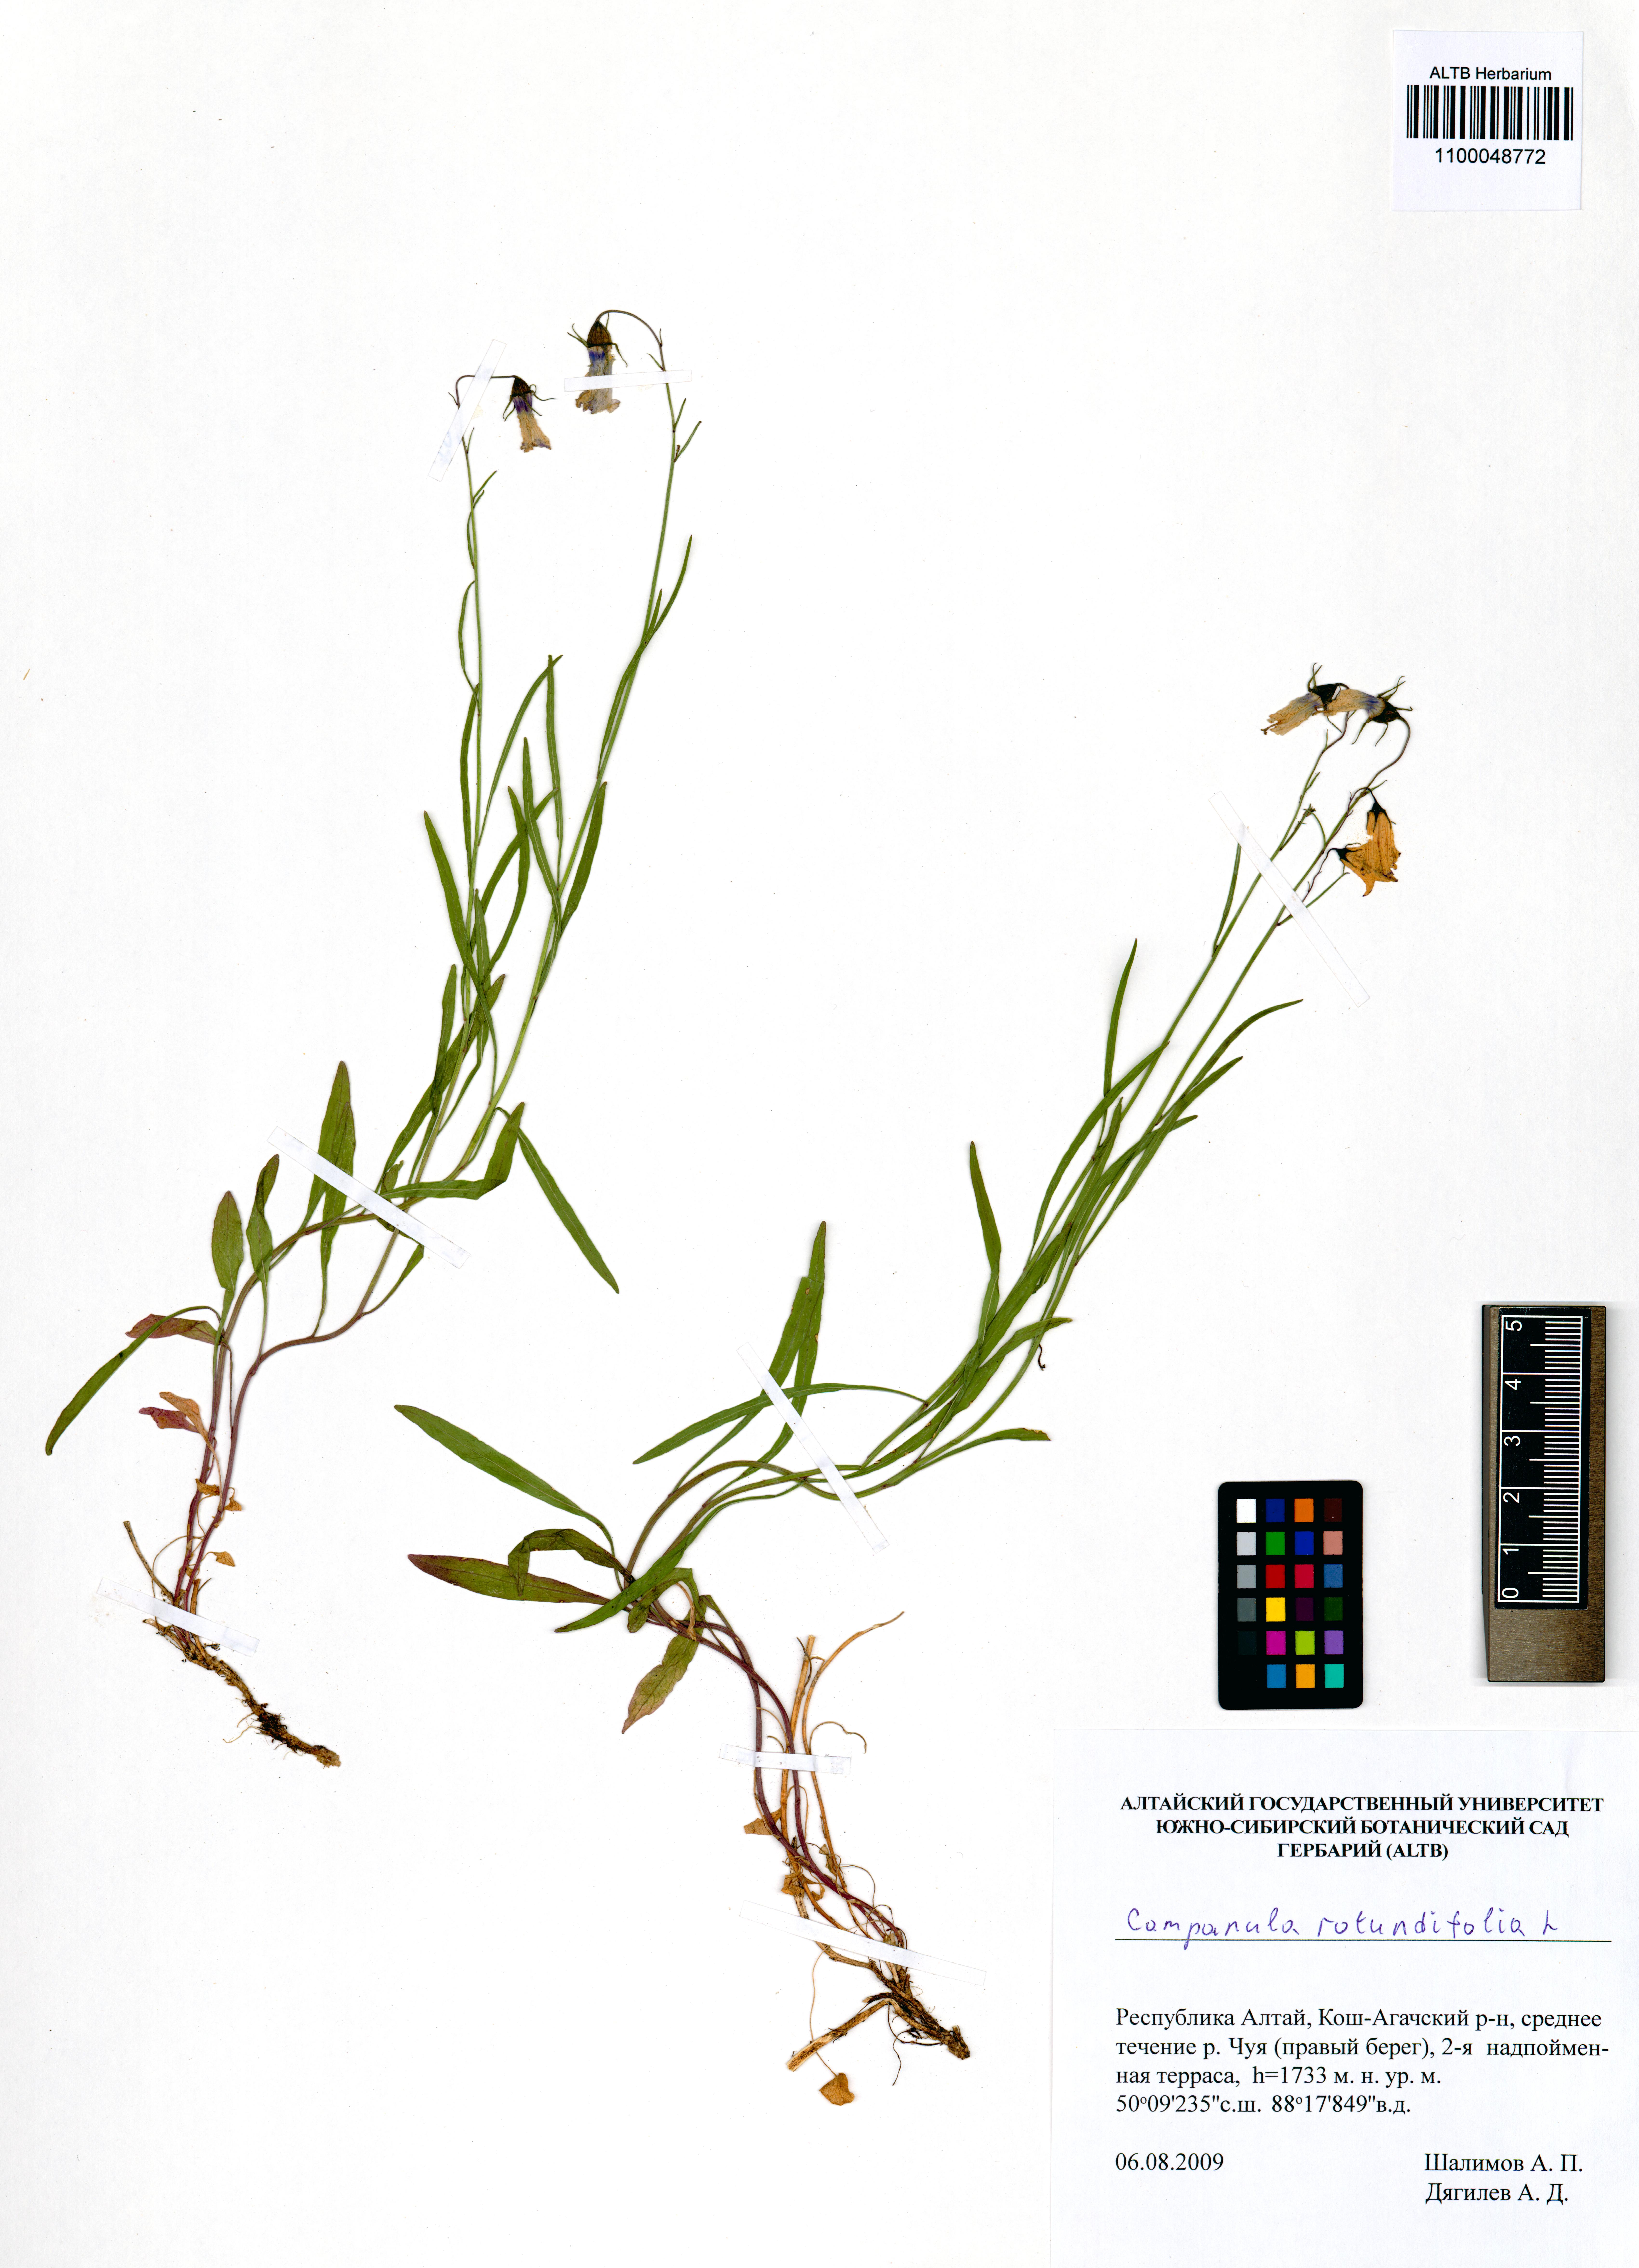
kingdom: Plantae
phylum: Tracheophyta
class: Magnoliopsida
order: Asterales
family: Campanulaceae
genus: Campanula
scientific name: Campanula rotundifolia
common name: Harebell
